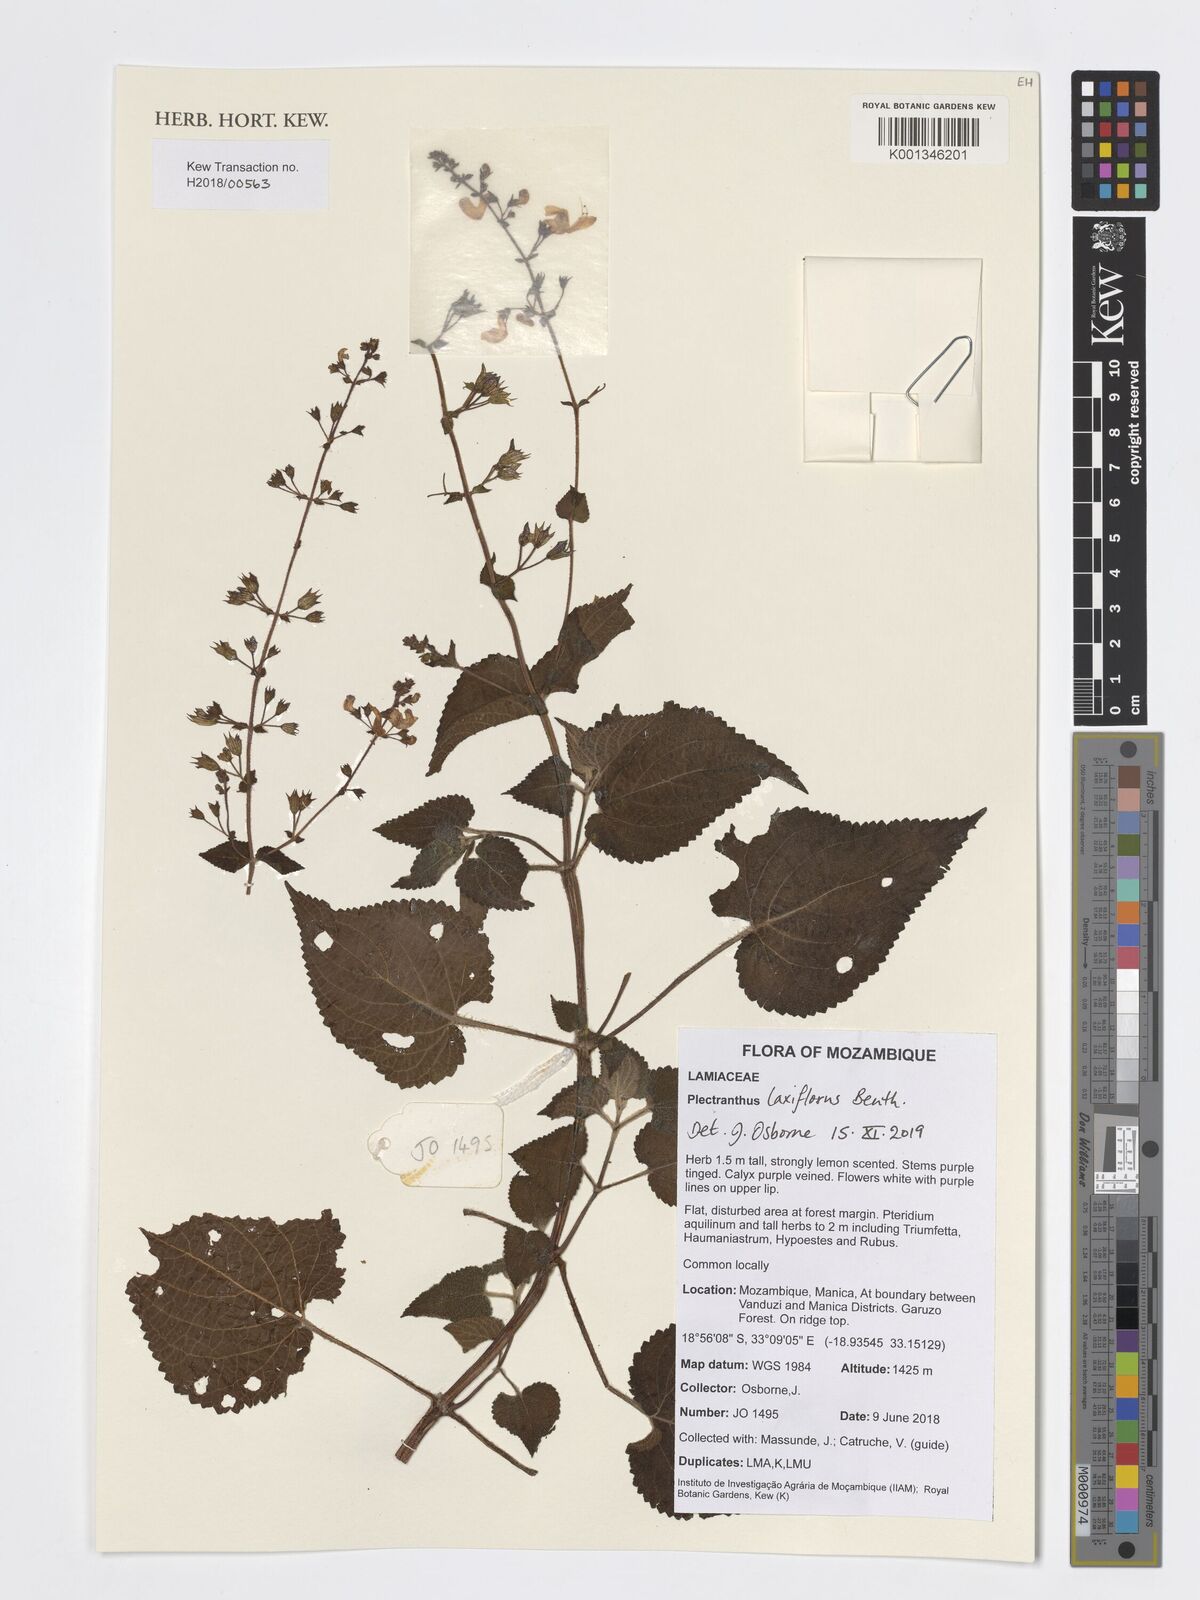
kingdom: Plantae
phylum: Tracheophyta
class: Magnoliopsida
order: Lamiales
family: Lamiaceae
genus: Equilabium
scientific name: Equilabium laxiflorum
